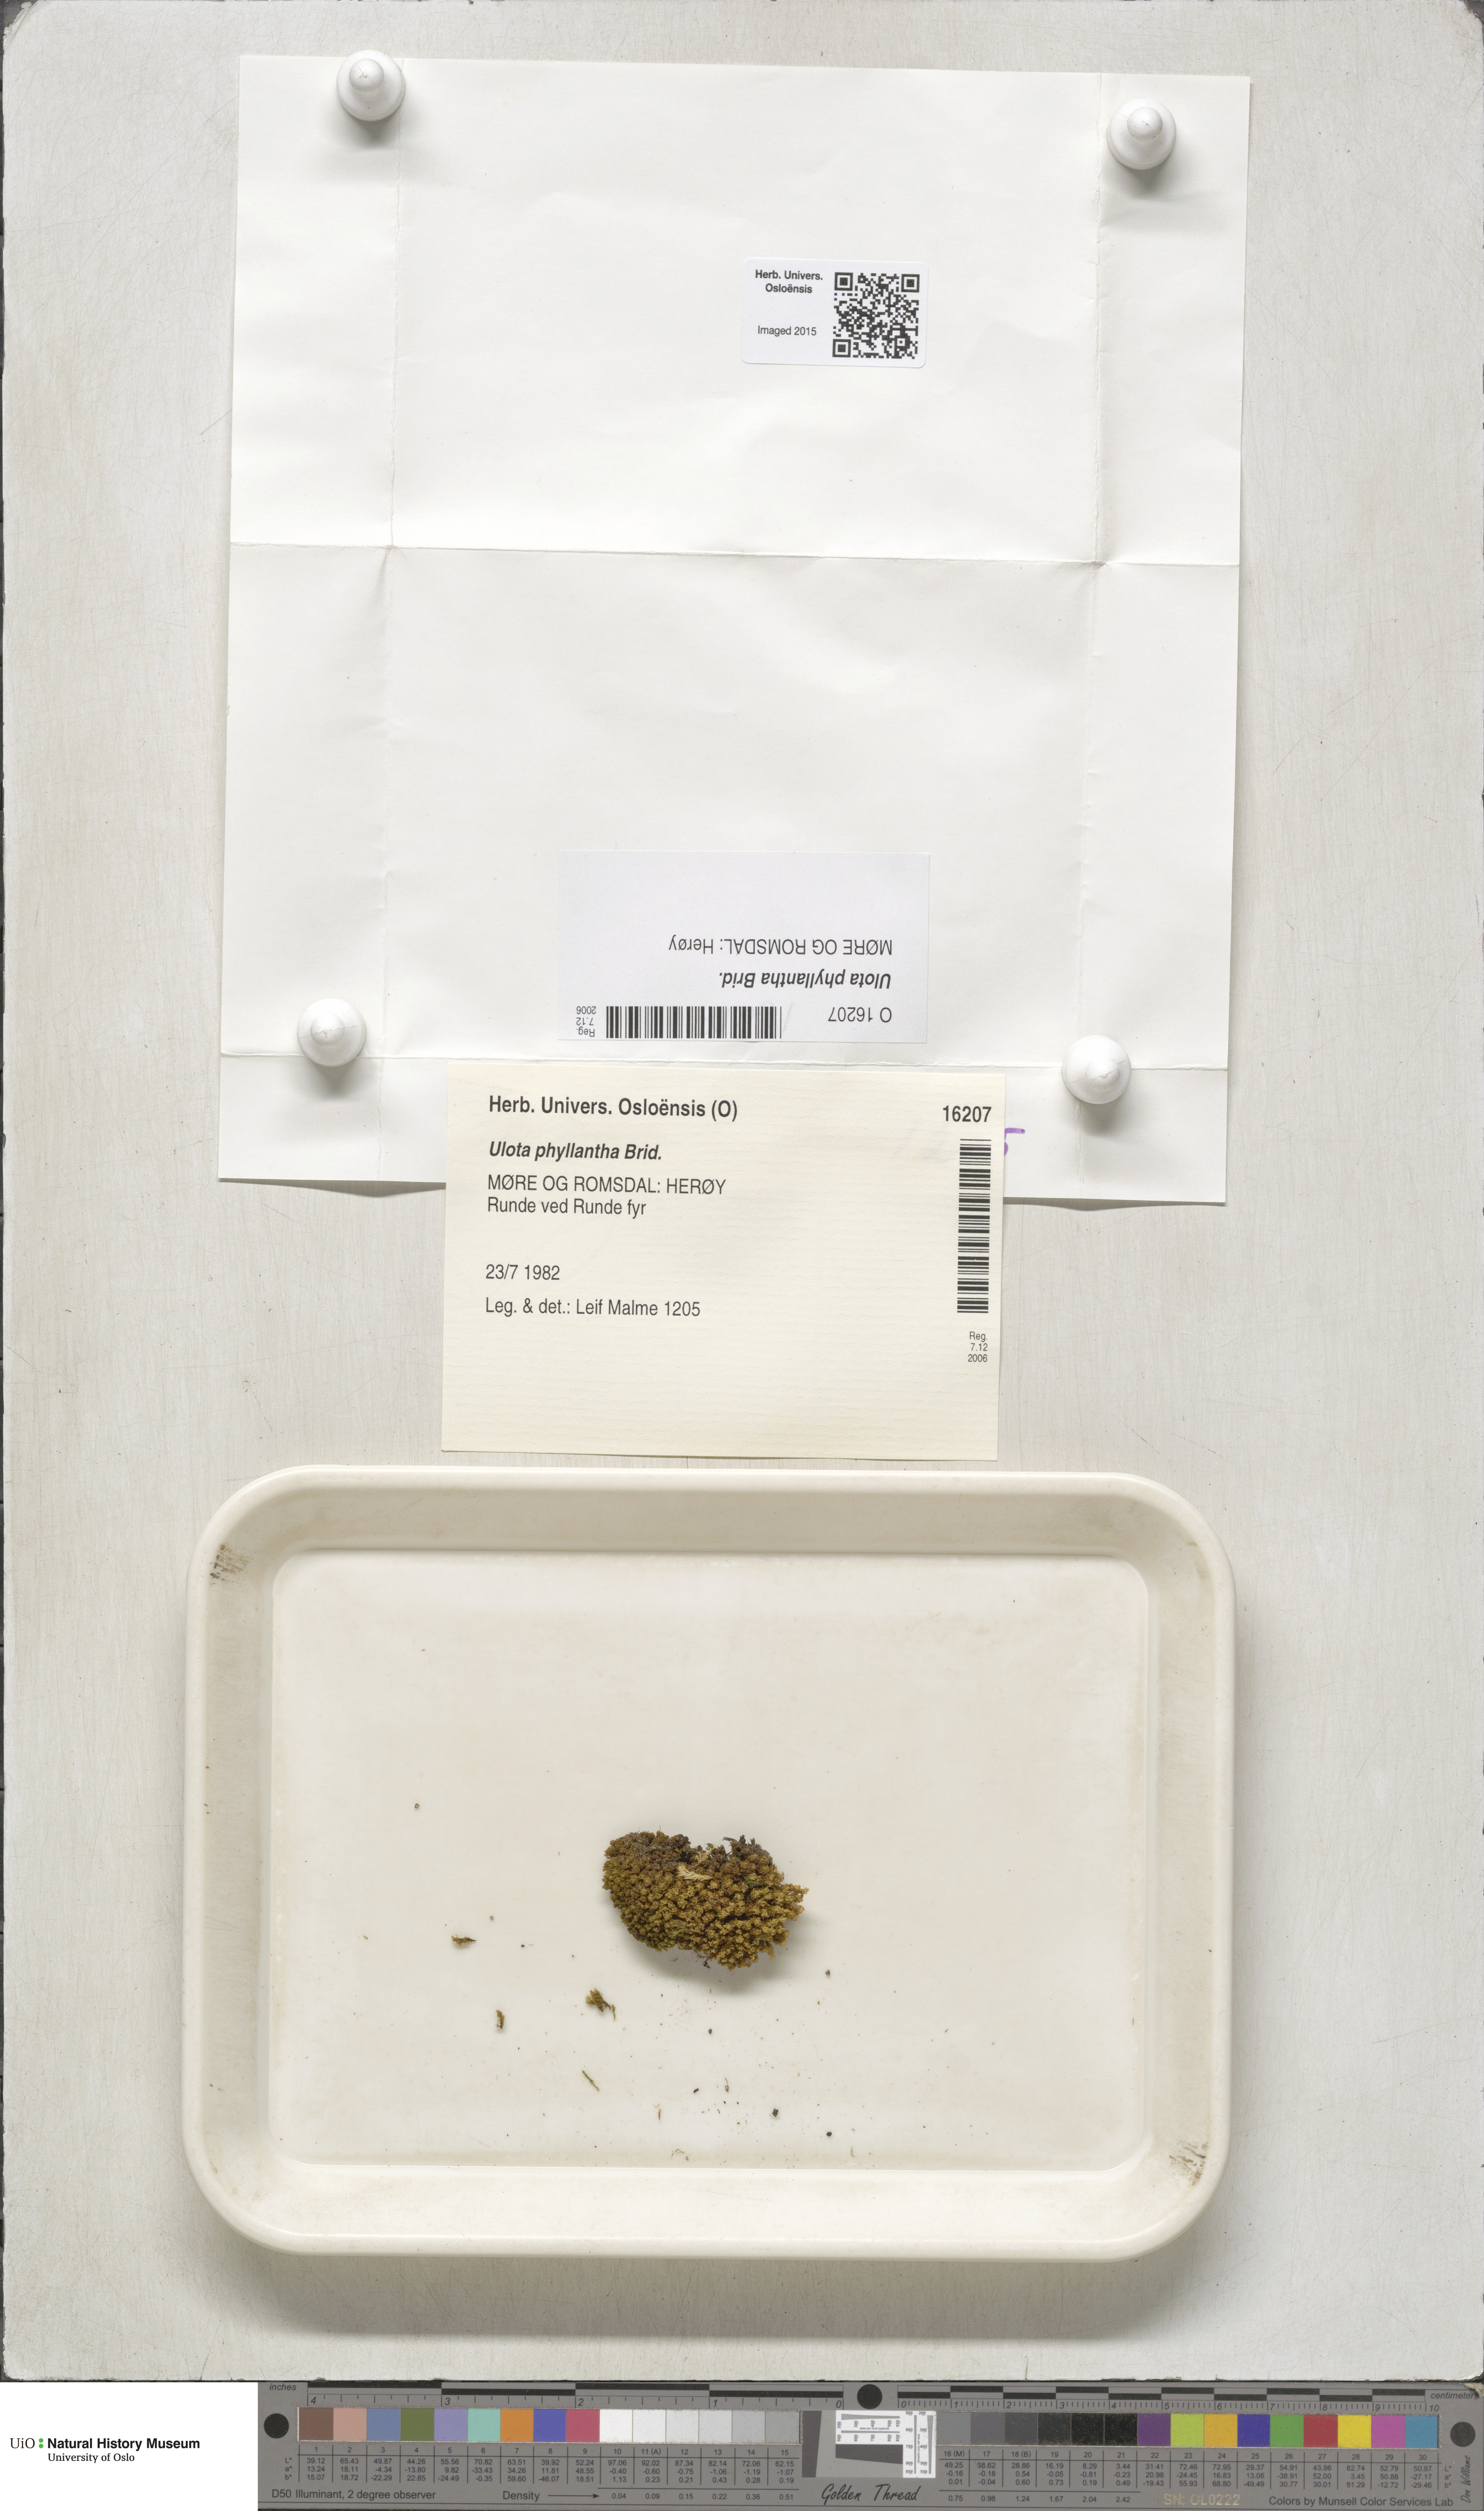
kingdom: Plantae
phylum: Bryophyta
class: Bryopsida
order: Orthotrichales
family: Orthotrichaceae
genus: Plenogemma
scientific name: Plenogemma phyllantha
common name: Frizzled pincushion
